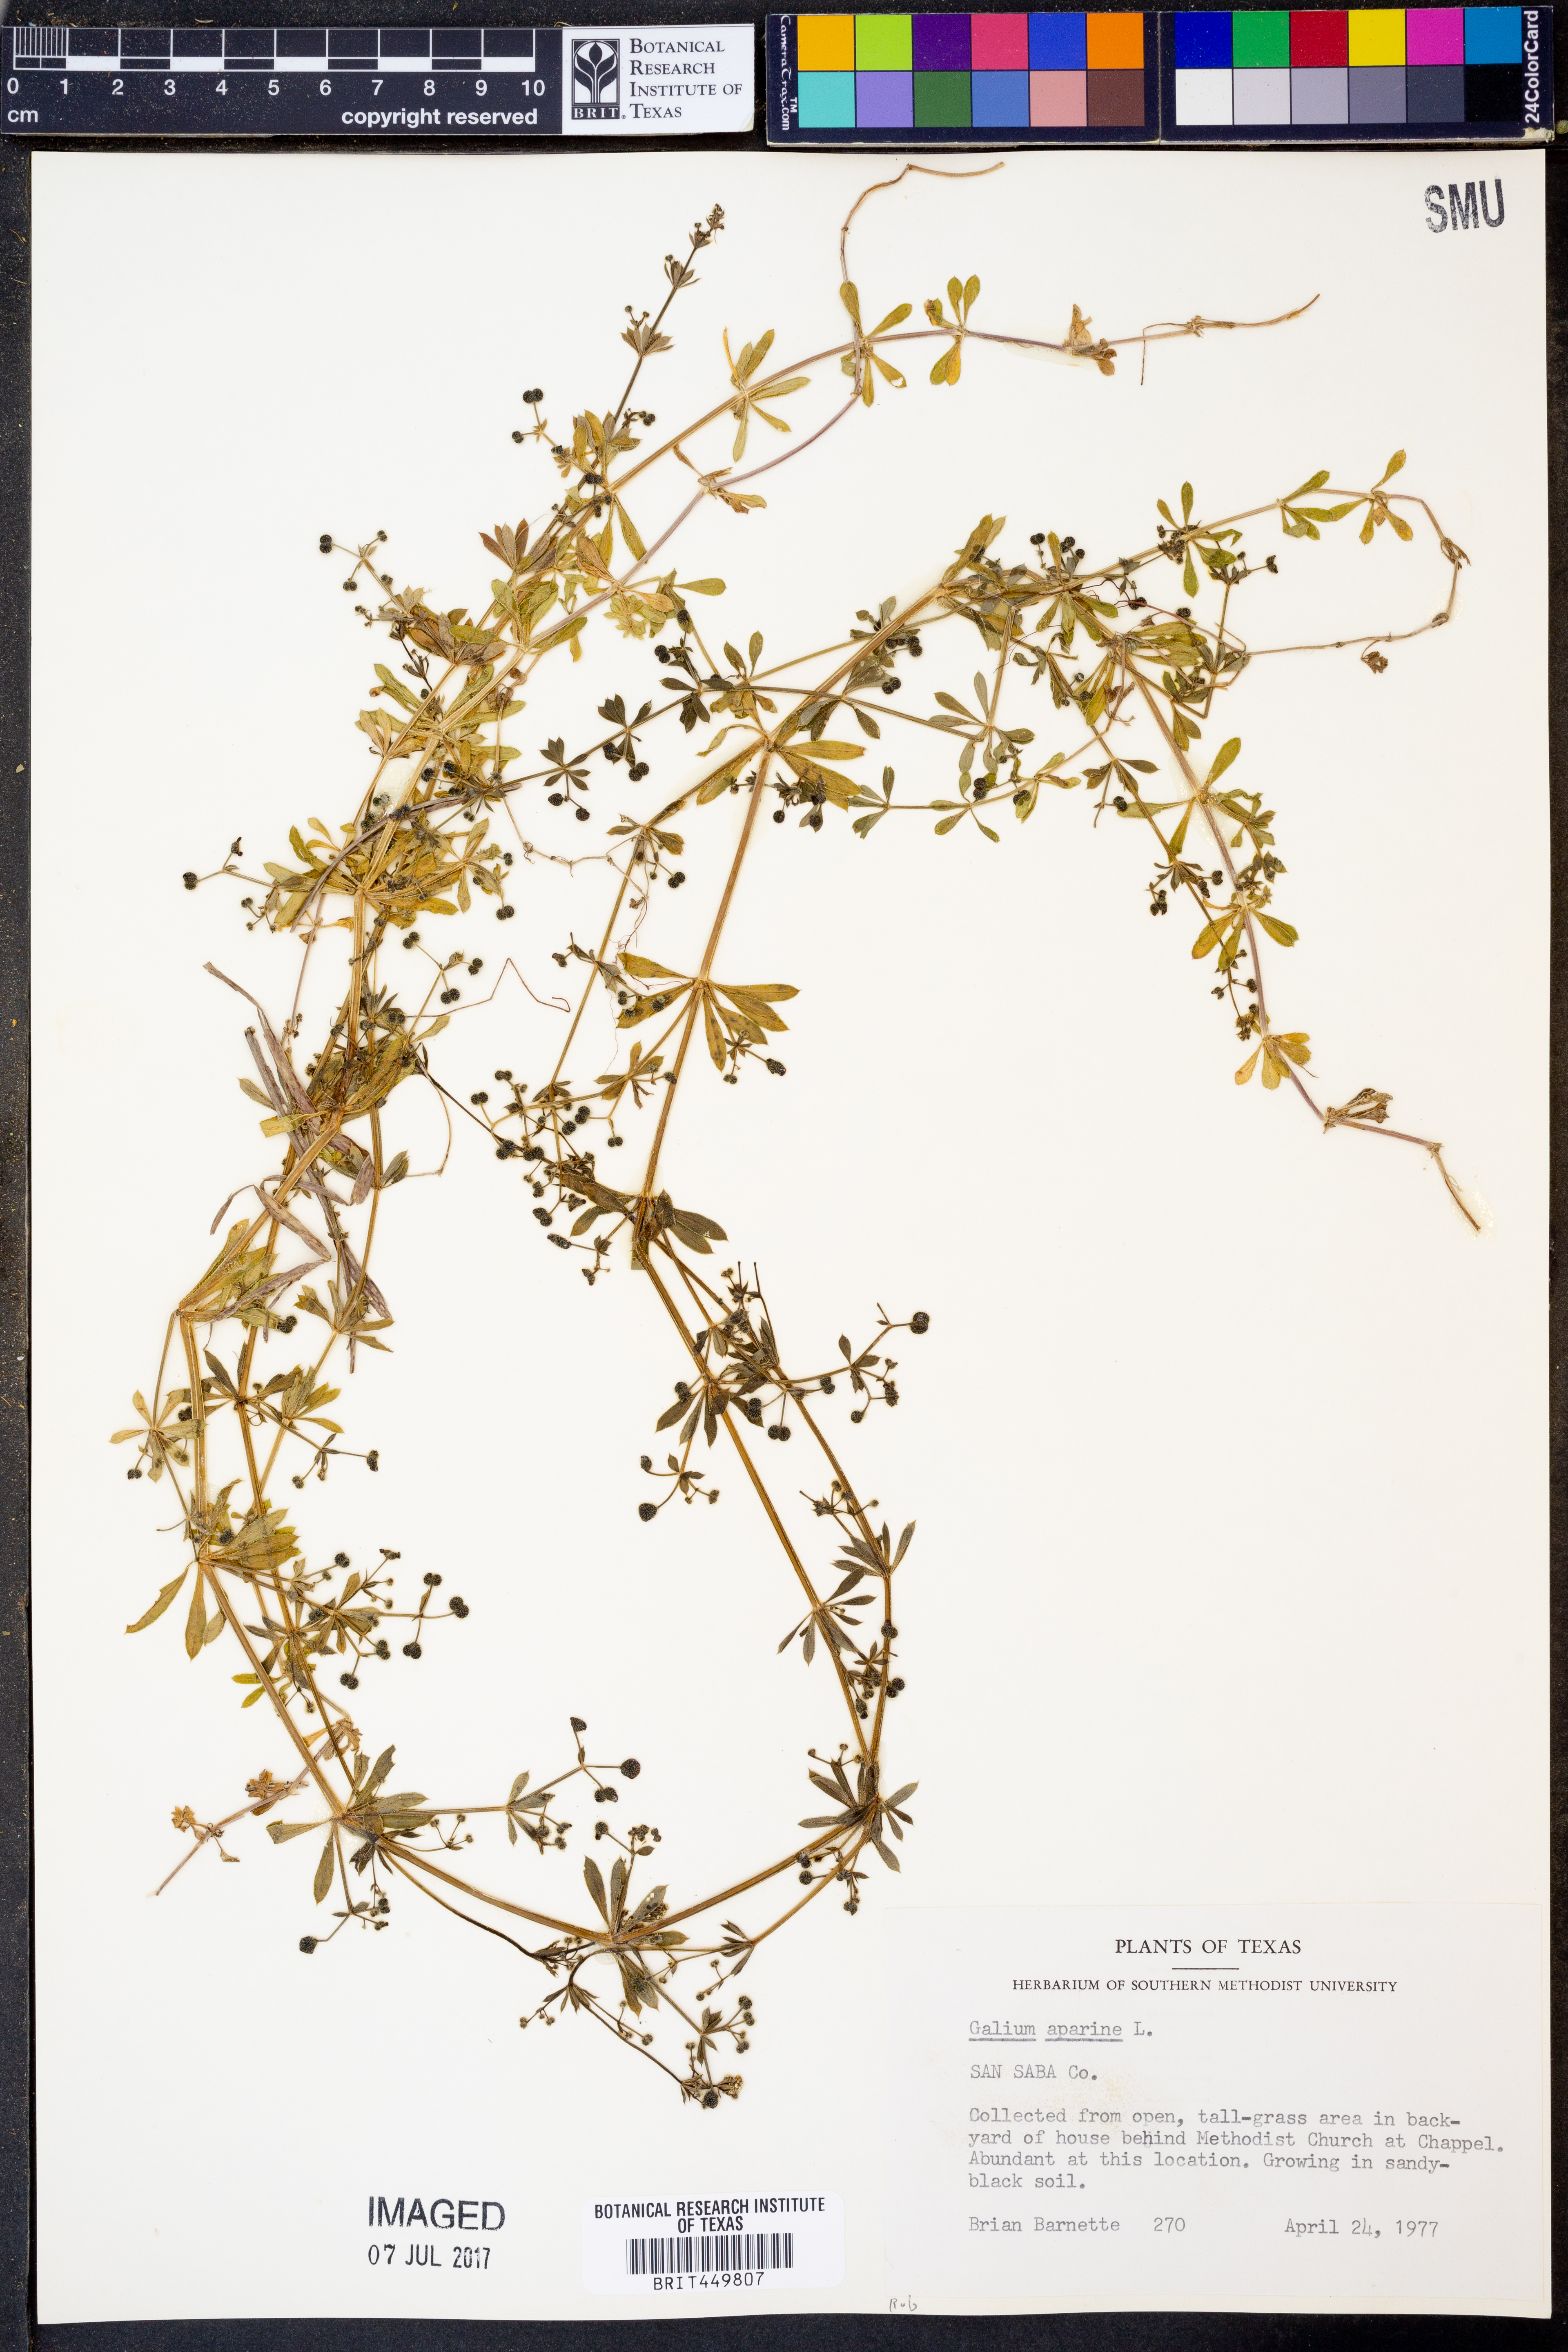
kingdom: Plantae
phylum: Tracheophyta
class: Magnoliopsida
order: Gentianales
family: Rubiaceae
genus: Galium
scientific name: Galium aparine
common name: Cleavers
